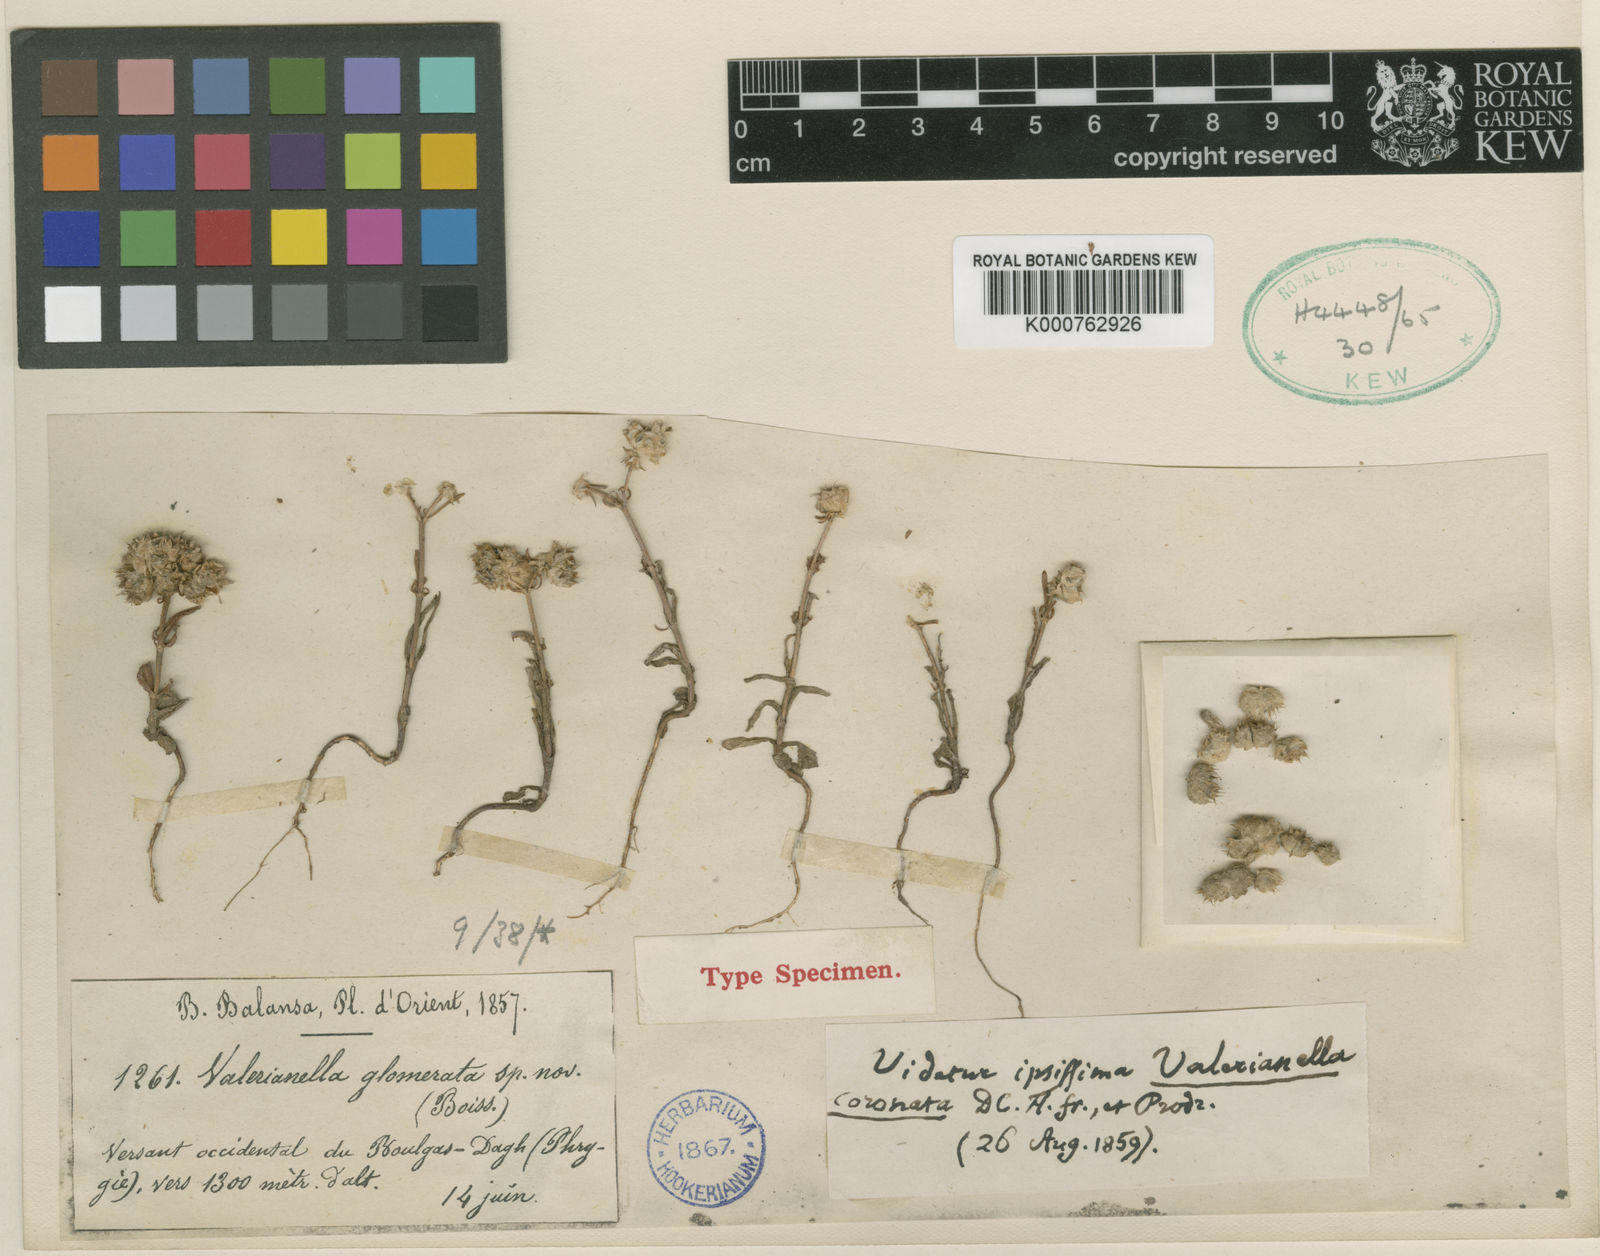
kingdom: Plantae
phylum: Tracheophyta
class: Magnoliopsida
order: Dipsacales
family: Caprifoliaceae
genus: Valerianella
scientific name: Valerianella pomelii
